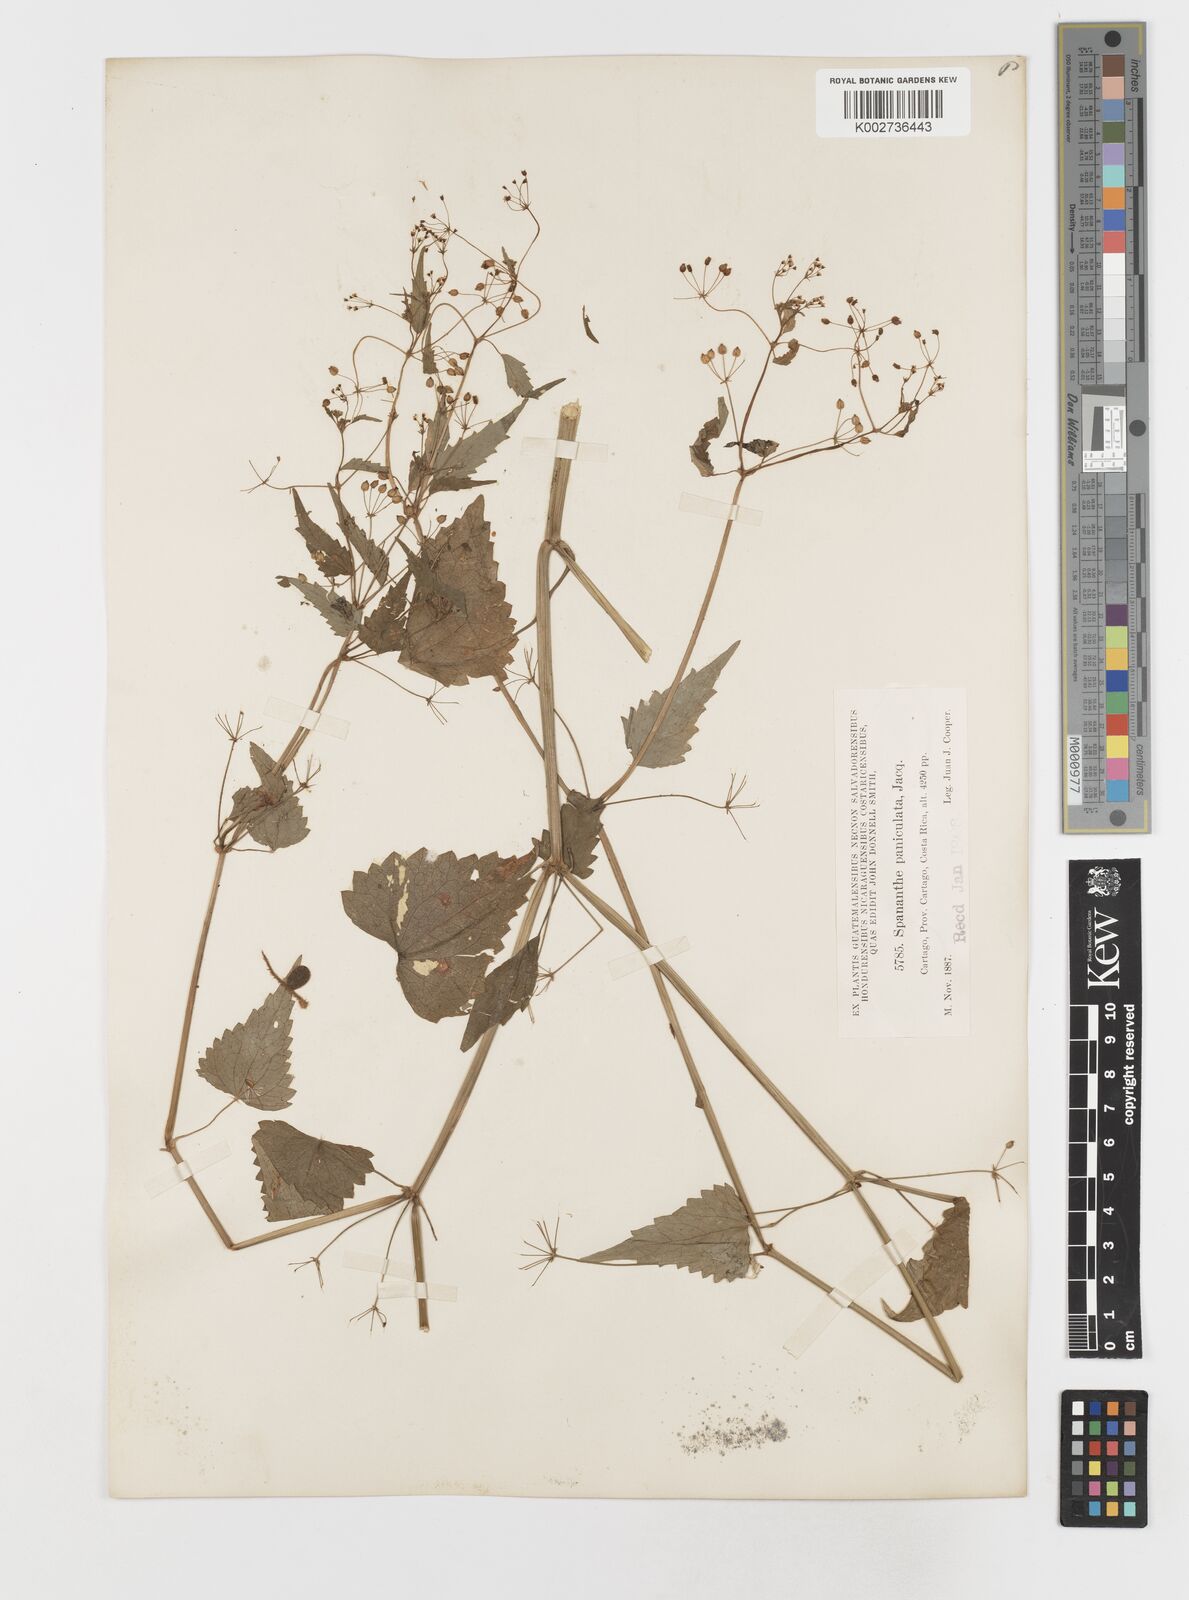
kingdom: Plantae
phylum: Tracheophyta
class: Magnoliopsida
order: Apiales
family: Apiaceae
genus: Spananthe
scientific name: Spananthe paniculata
